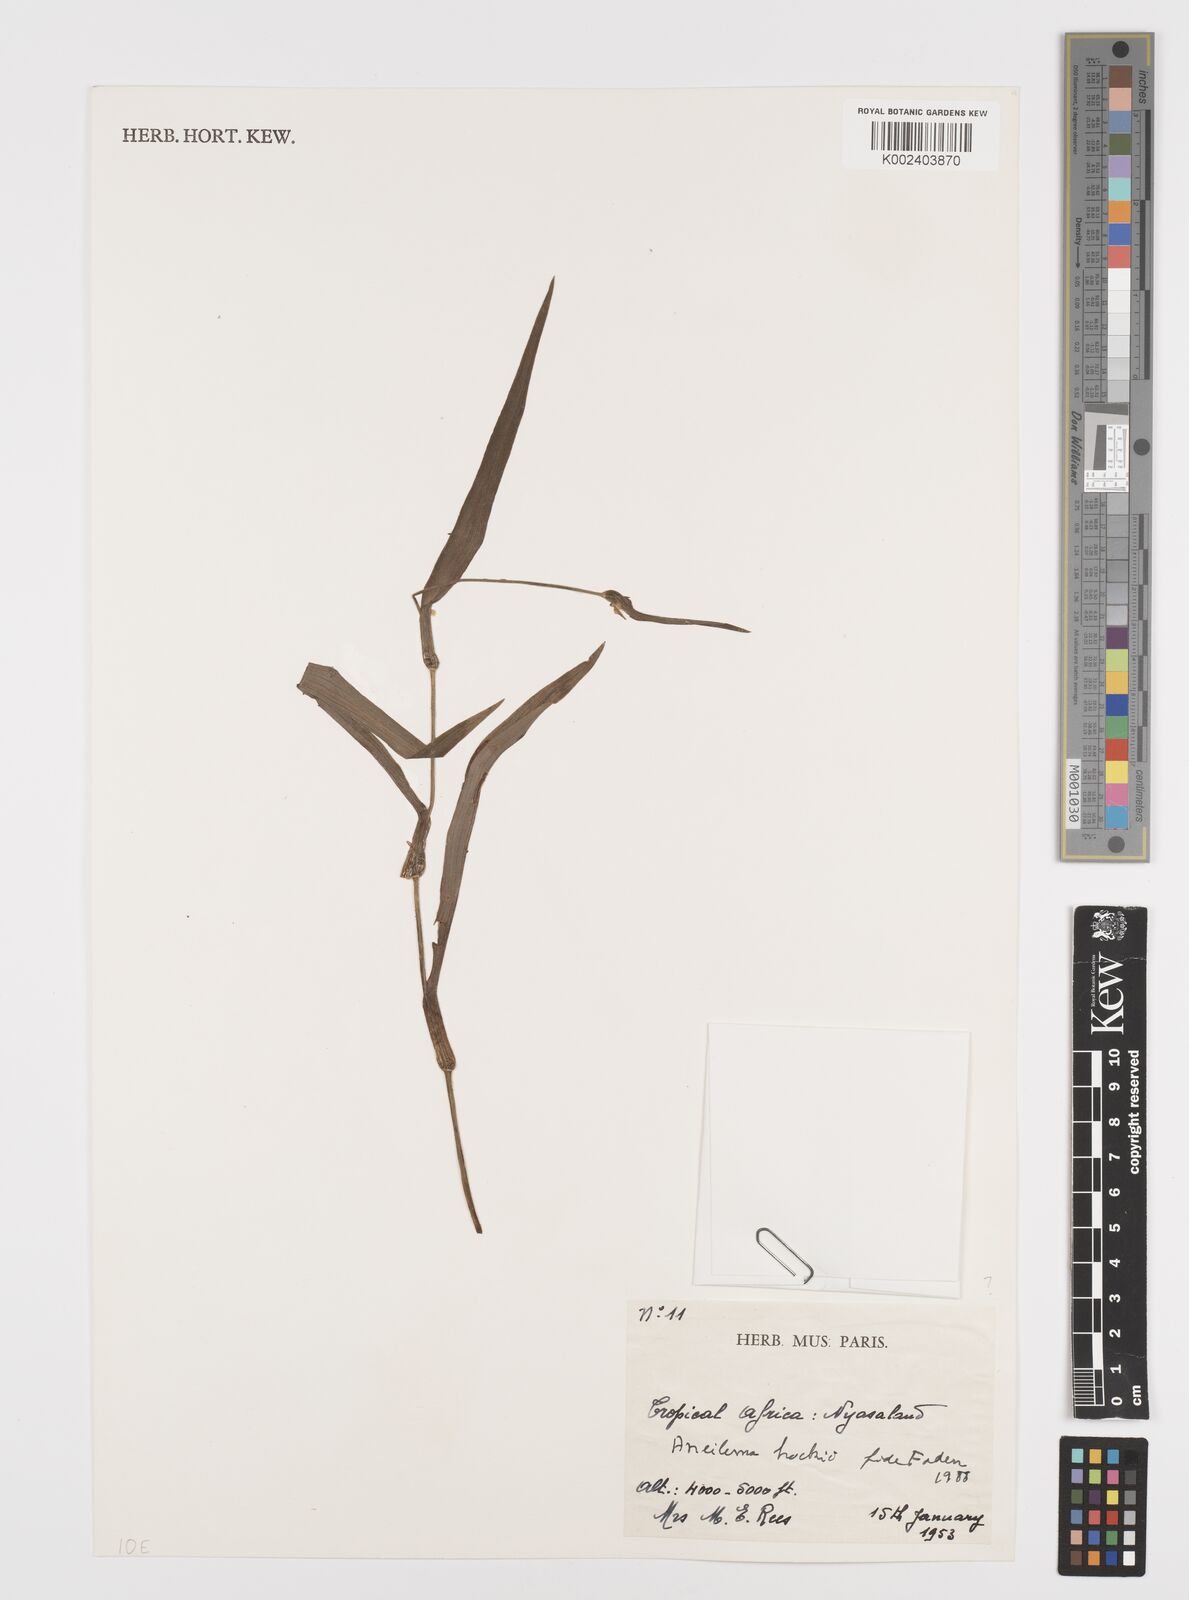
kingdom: Plantae
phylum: Tracheophyta
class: Liliopsida
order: Commelinales
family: Commelinaceae
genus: Aneilema
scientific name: Aneilema hockii
